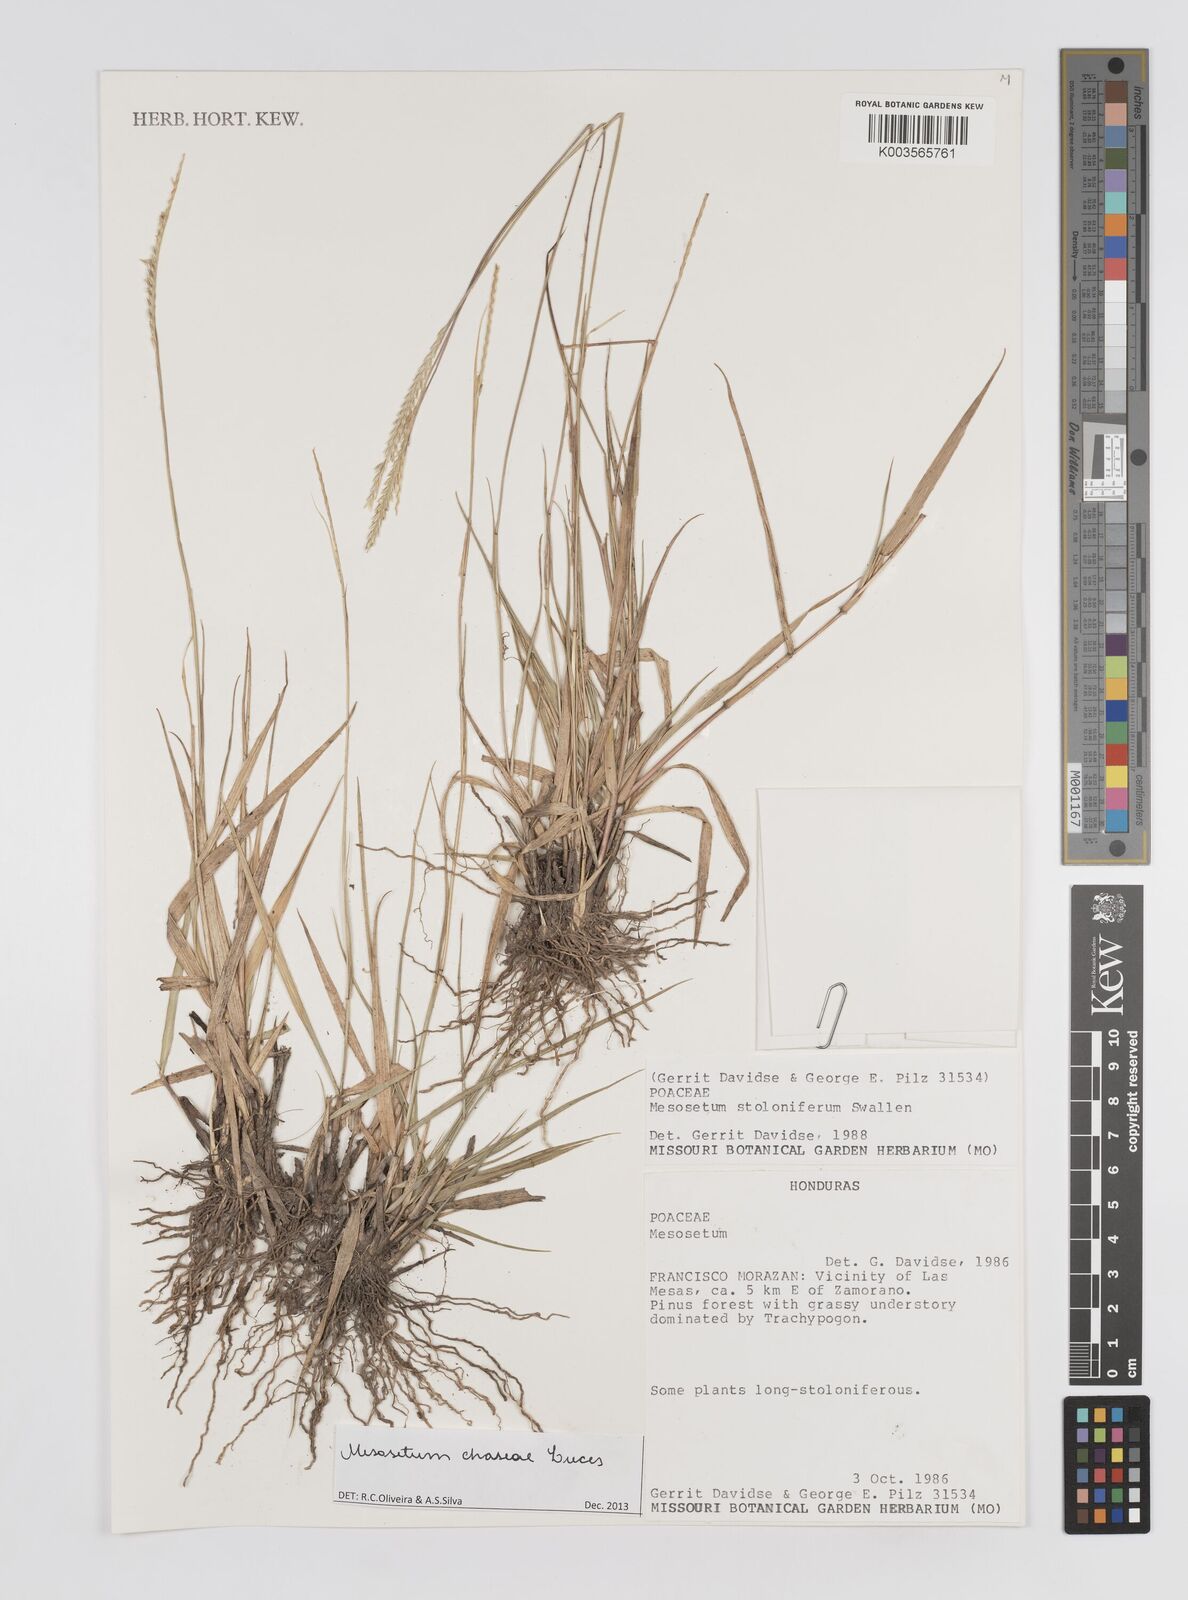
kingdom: Plantae
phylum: Tracheophyta
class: Liliopsida
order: Poales
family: Poaceae
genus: Mesosetum
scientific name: Mesosetum stoloniferum
